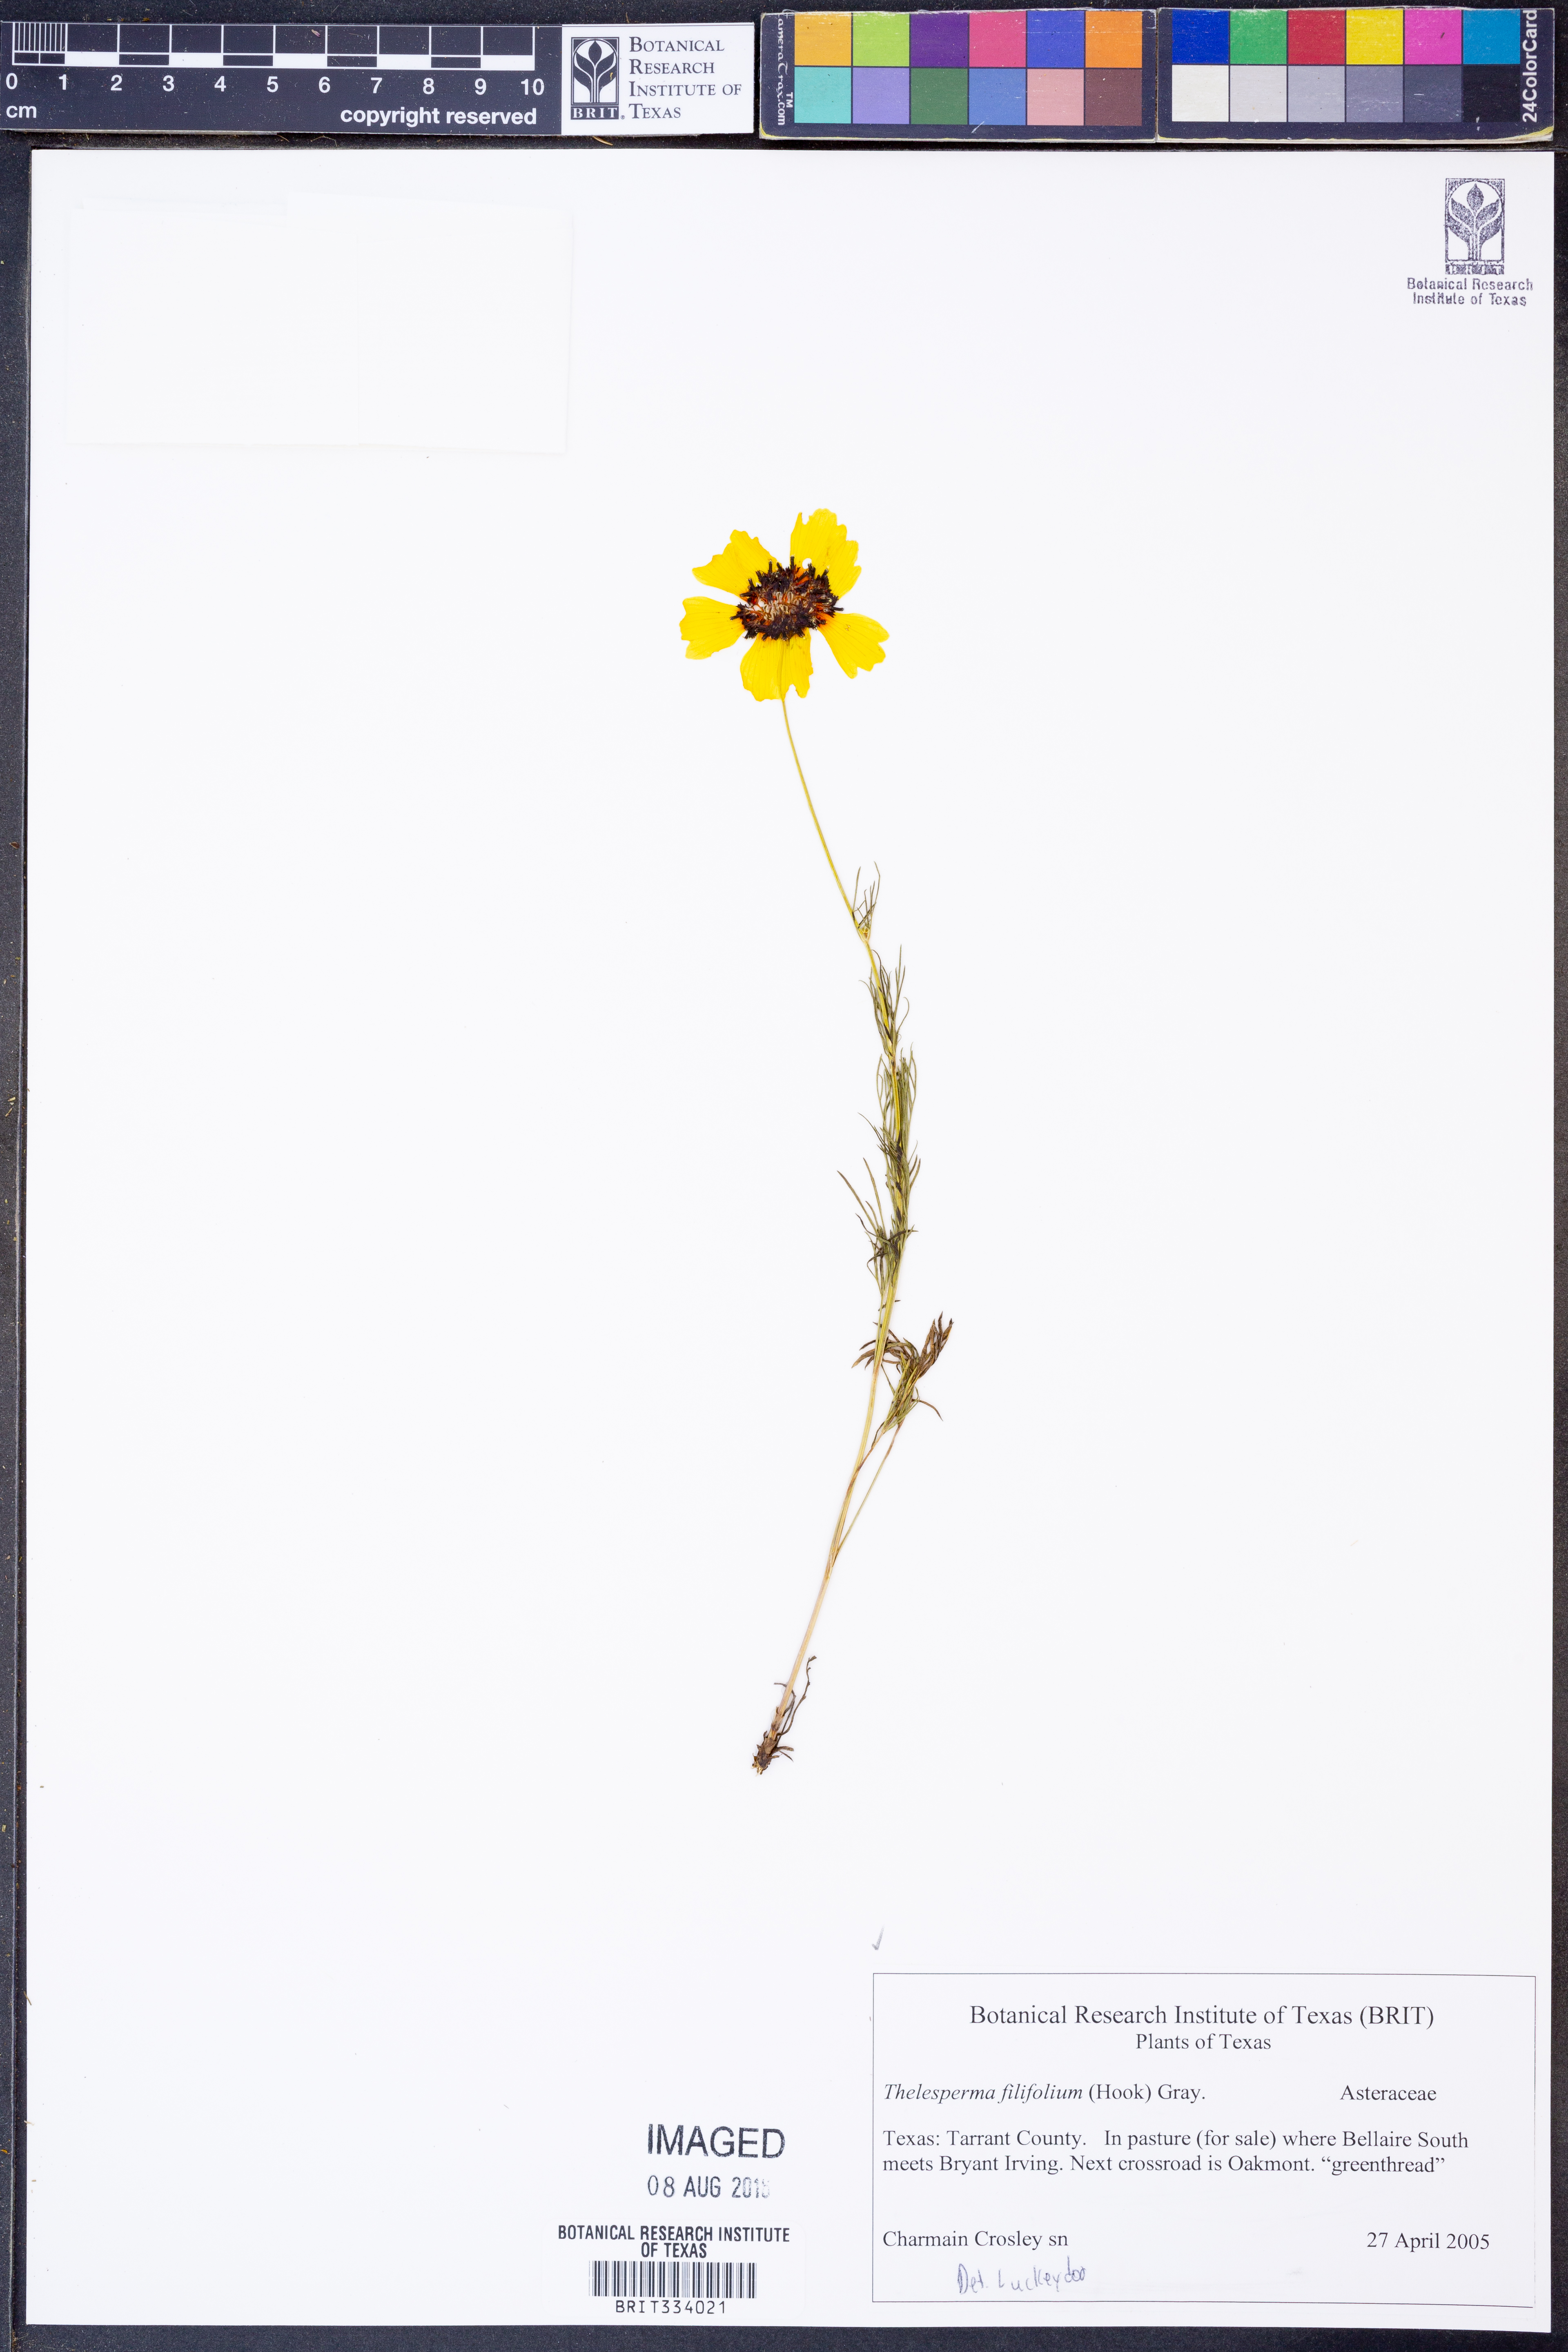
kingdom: Plantae
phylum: Tracheophyta
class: Magnoliopsida
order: Asterales
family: Asteraceae
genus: Thelesperma
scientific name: Thelesperma filifolium
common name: Stiff greenthread
